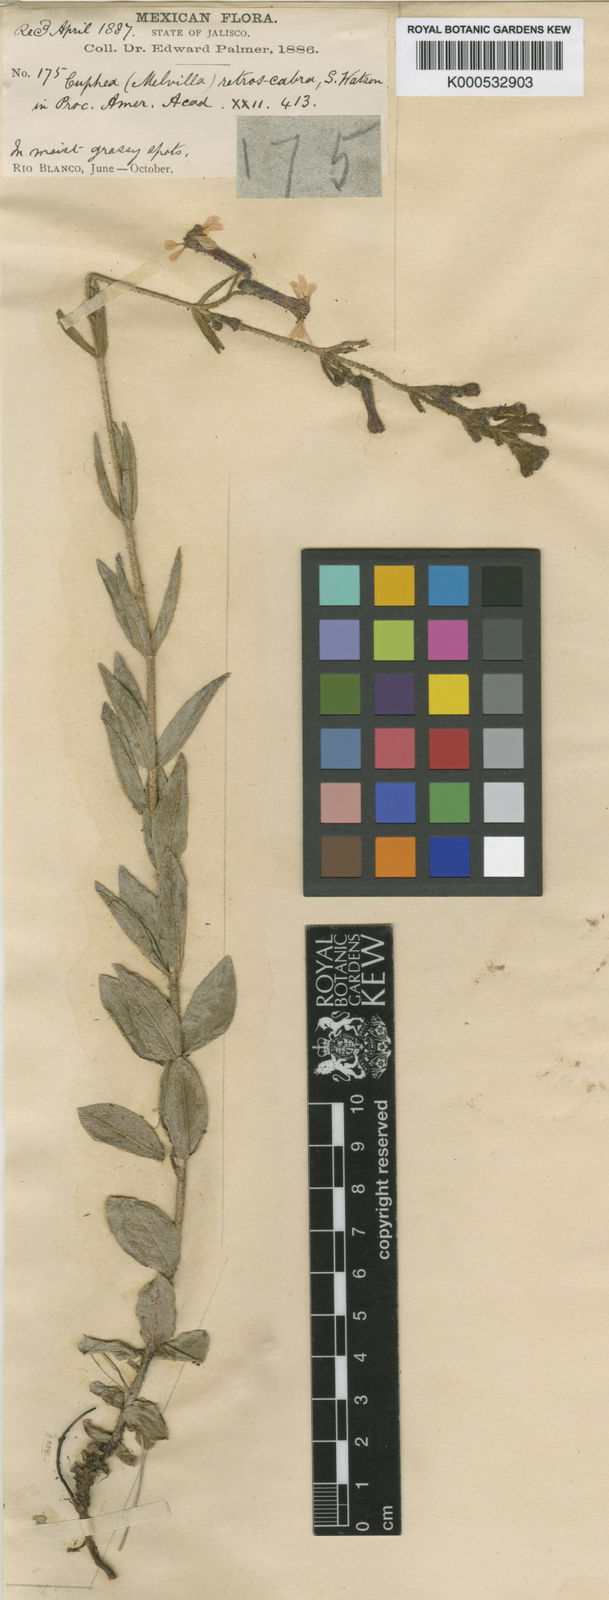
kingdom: Plantae
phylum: Tracheophyta
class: Magnoliopsida
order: Myrtales
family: Lythraceae
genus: Cuphea
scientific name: Cuphea retroscabra
